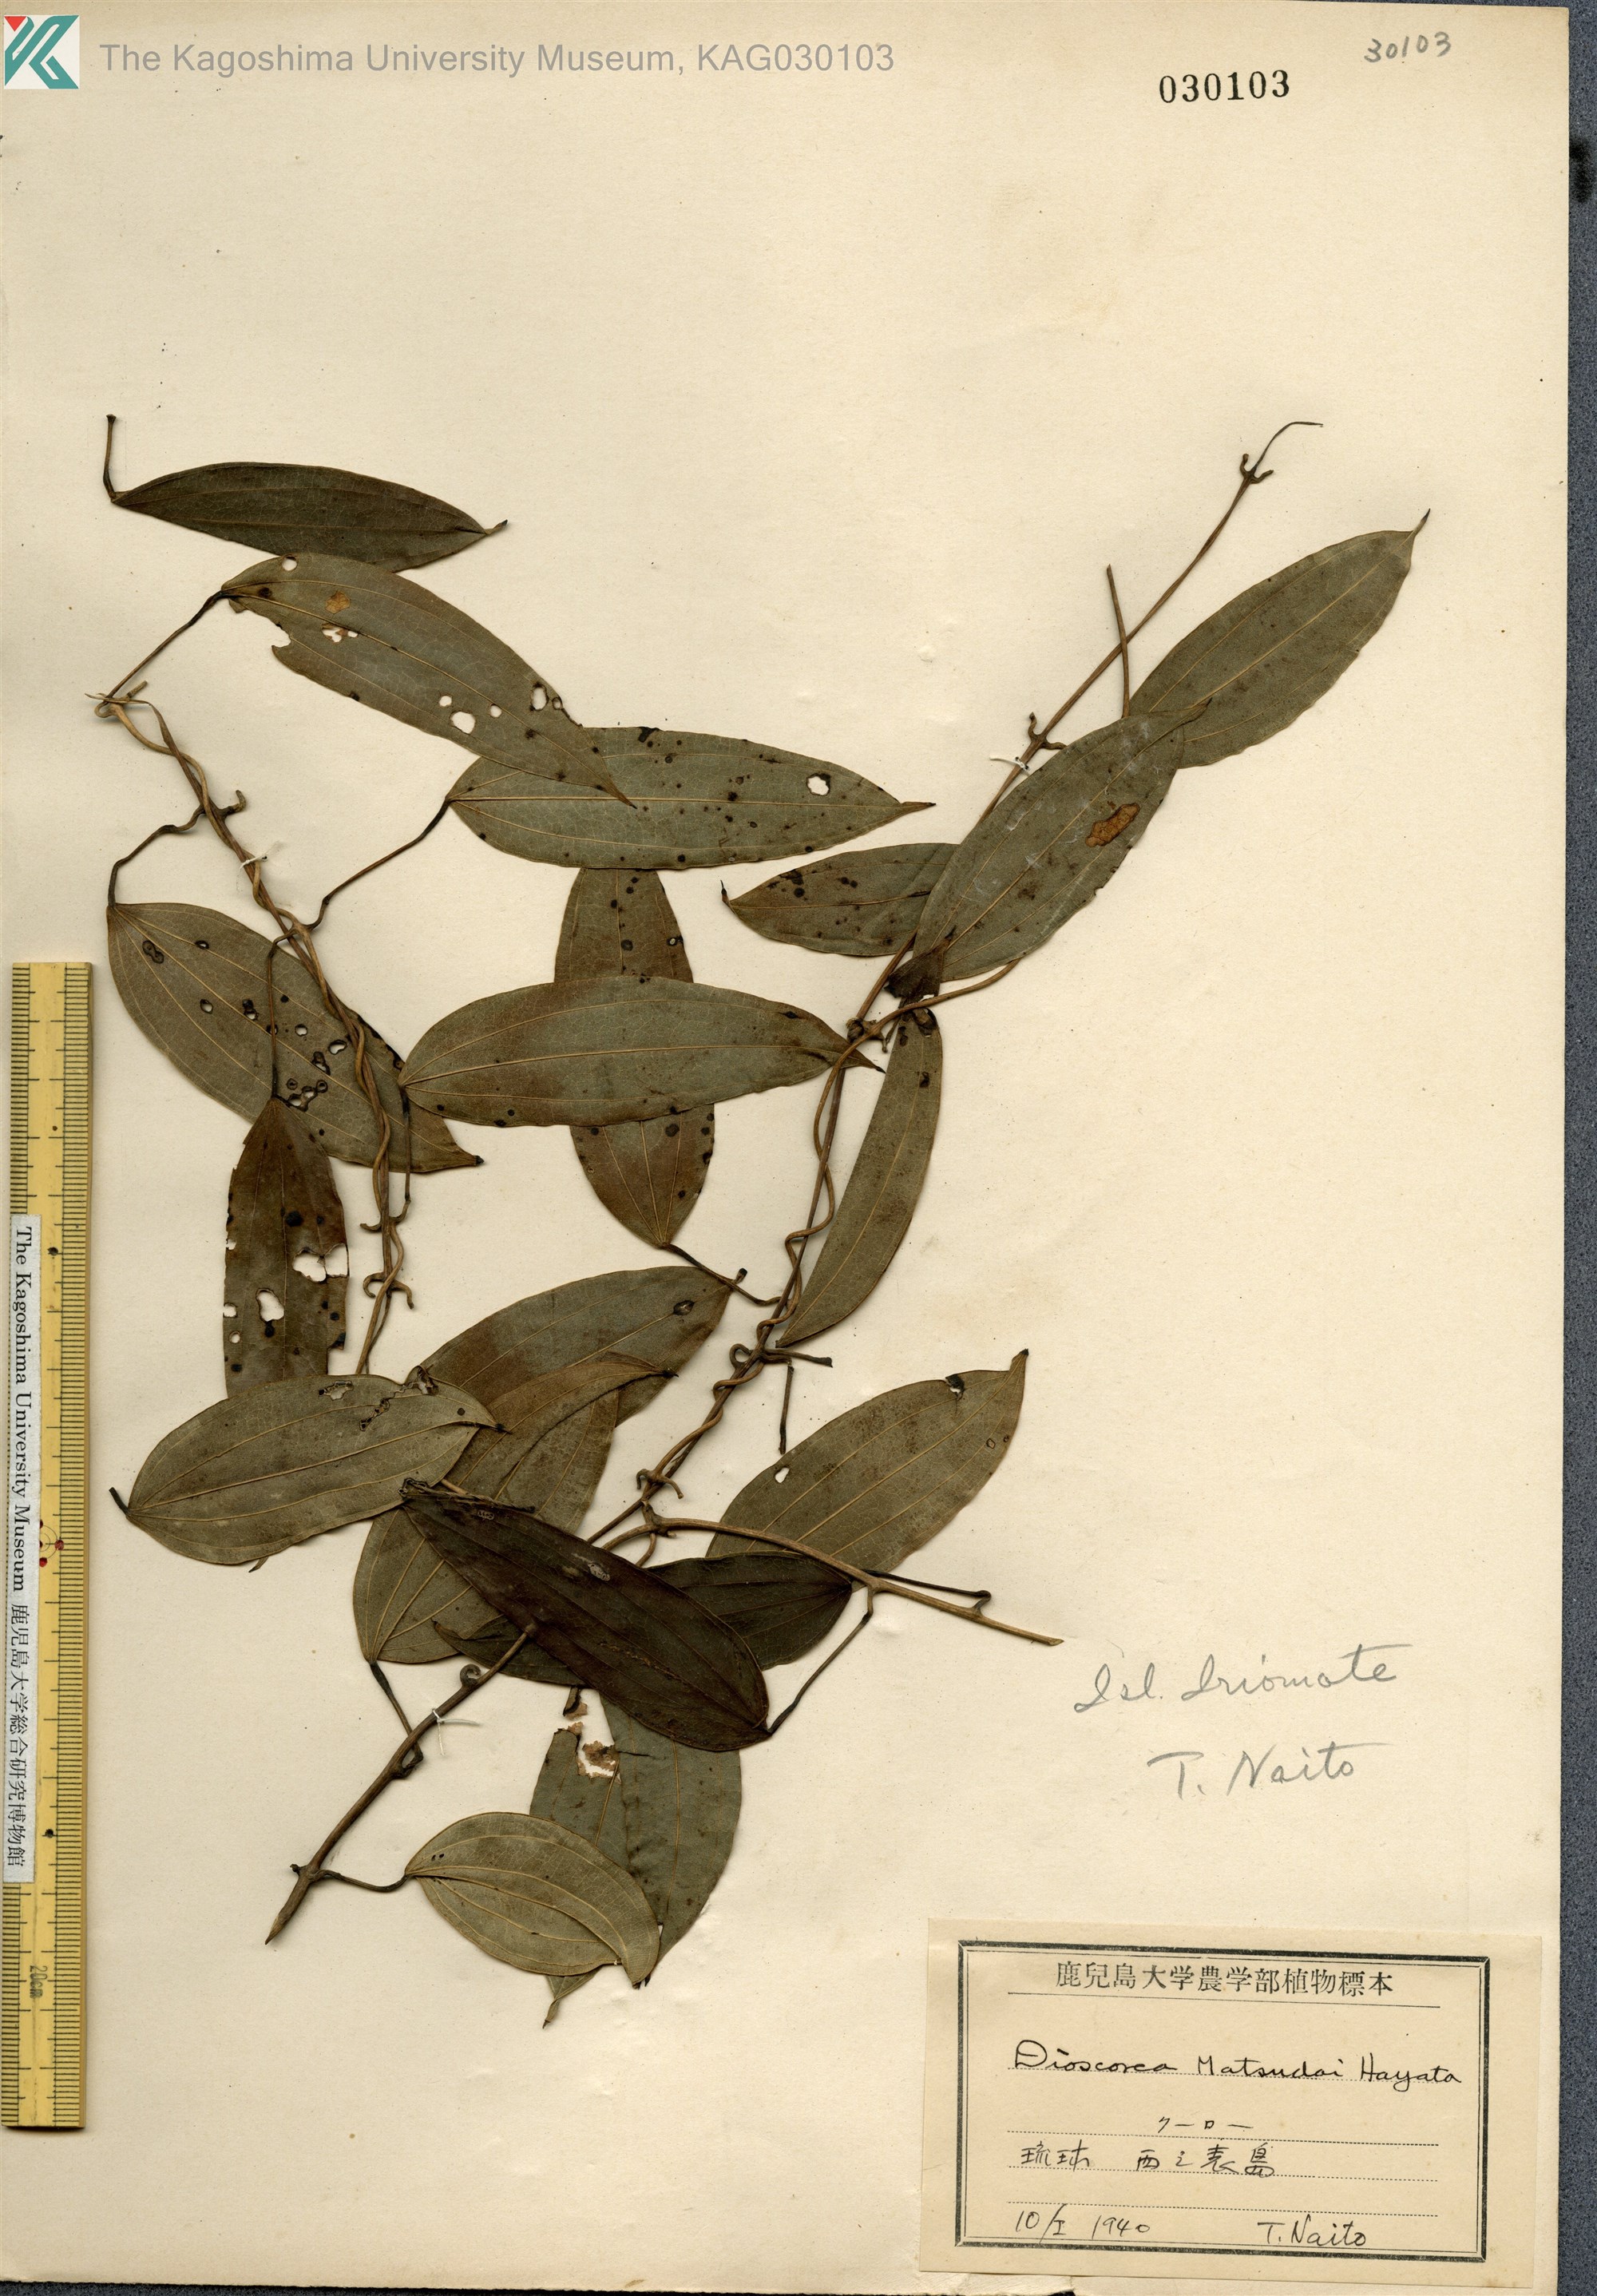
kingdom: Plantae
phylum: Tracheophyta
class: Liliopsida
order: Dioscoreales
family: Dioscoreaceae
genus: Dioscorea
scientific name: Dioscorea cirrhosa
